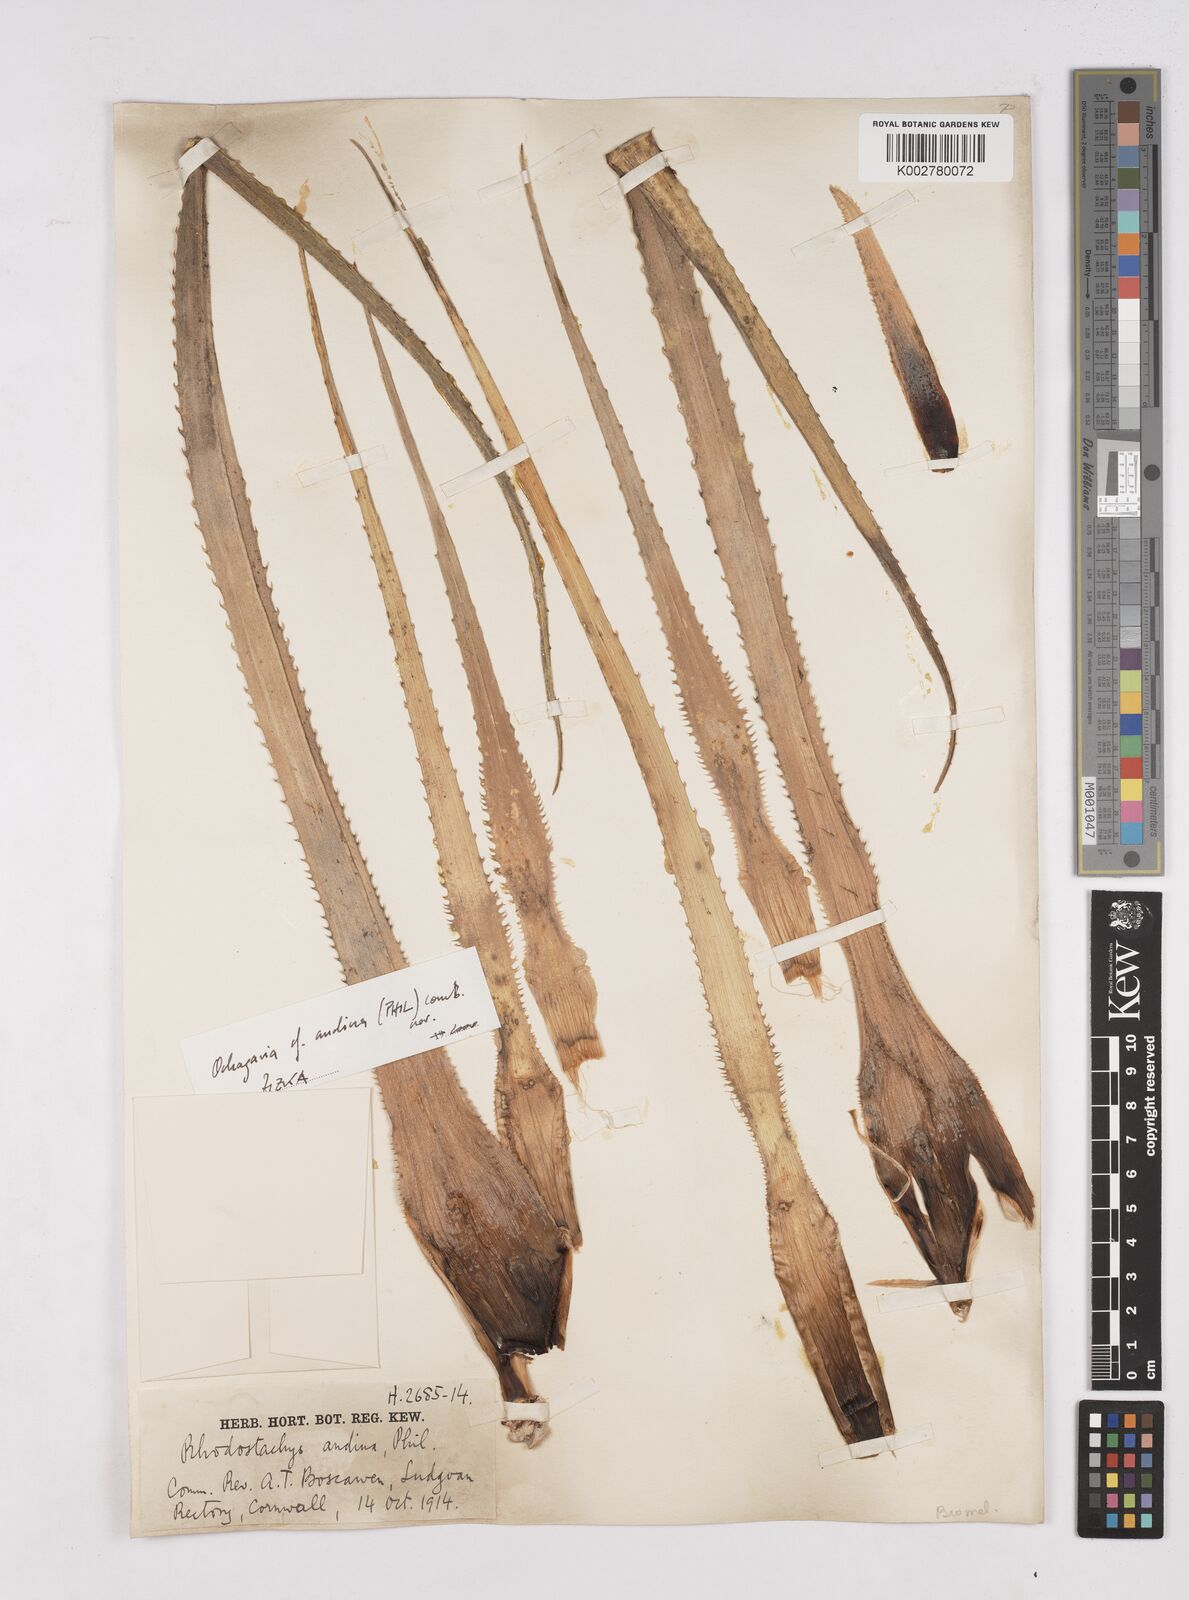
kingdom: Plantae
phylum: Tracheophyta
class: Liliopsida
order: Poales
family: Bromeliaceae
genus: Ochagavia
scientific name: Ochagavia carnea
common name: Tresco rhodostachys
